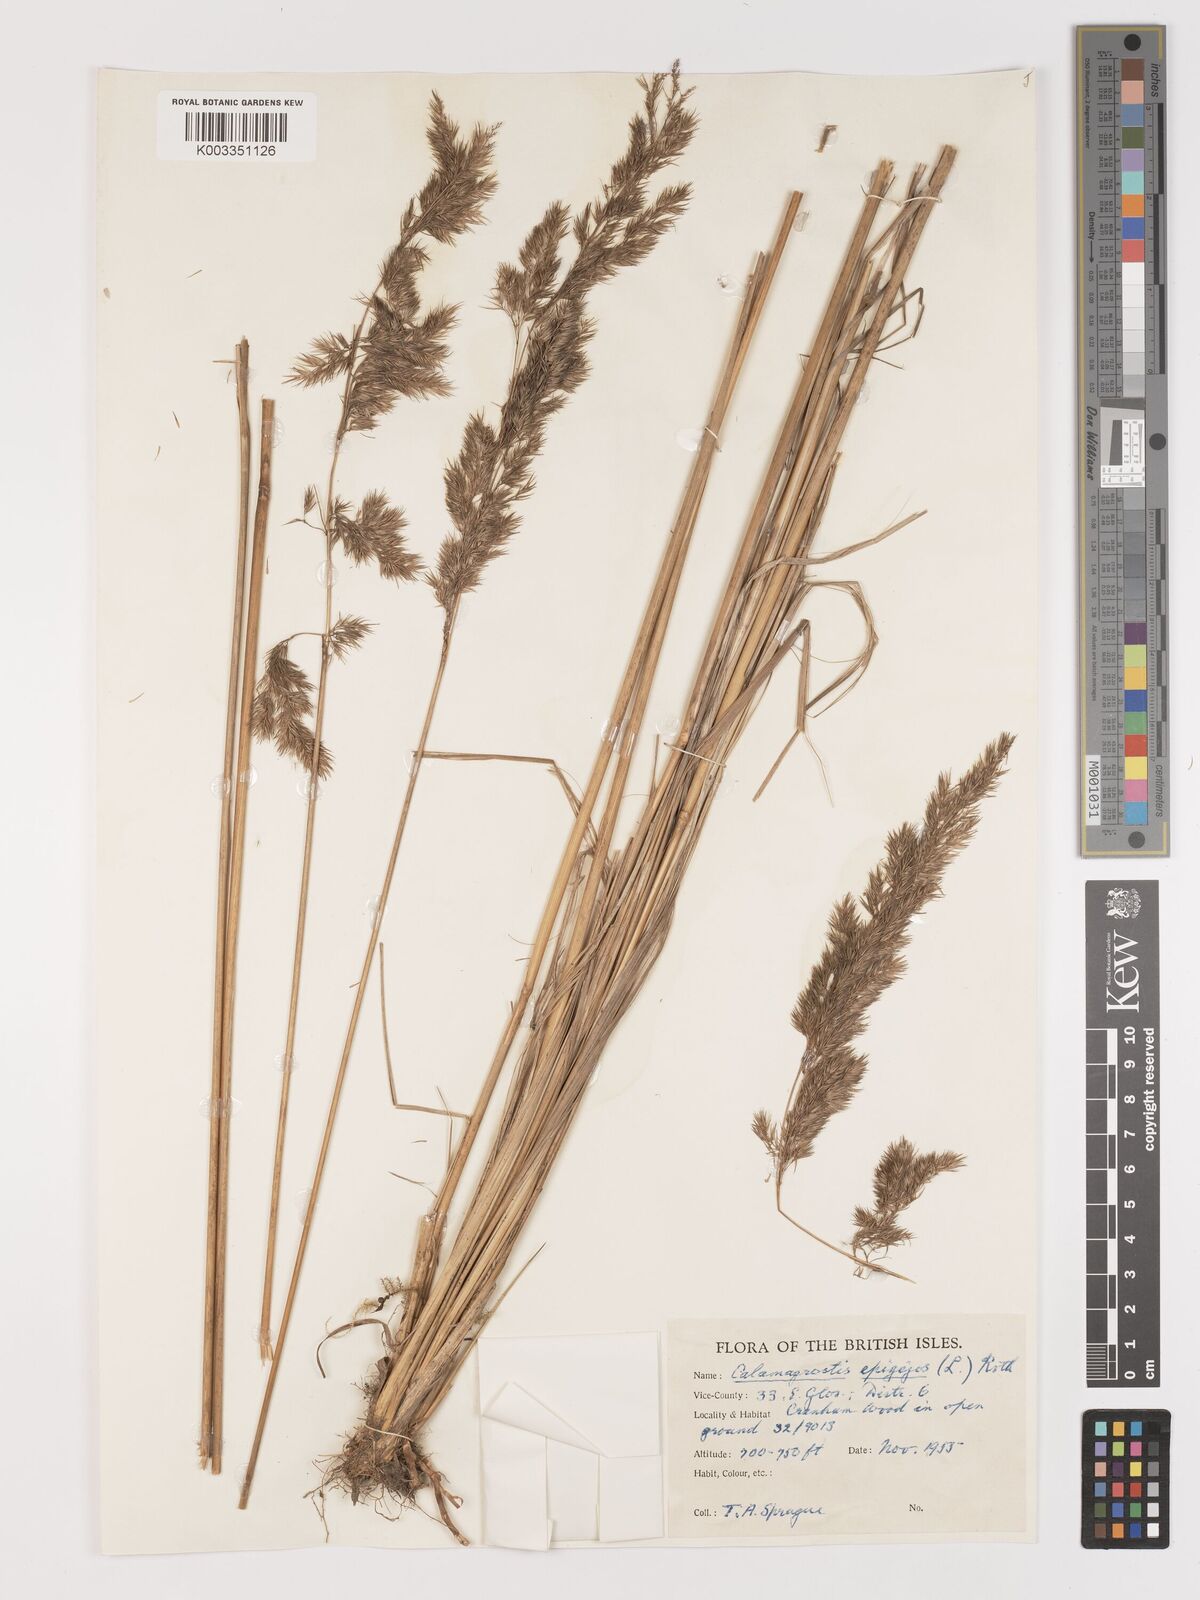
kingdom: Plantae
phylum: Tracheophyta
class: Liliopsida
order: Poales
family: Poaceae
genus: Calamagrostis
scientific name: Calamagrostis
